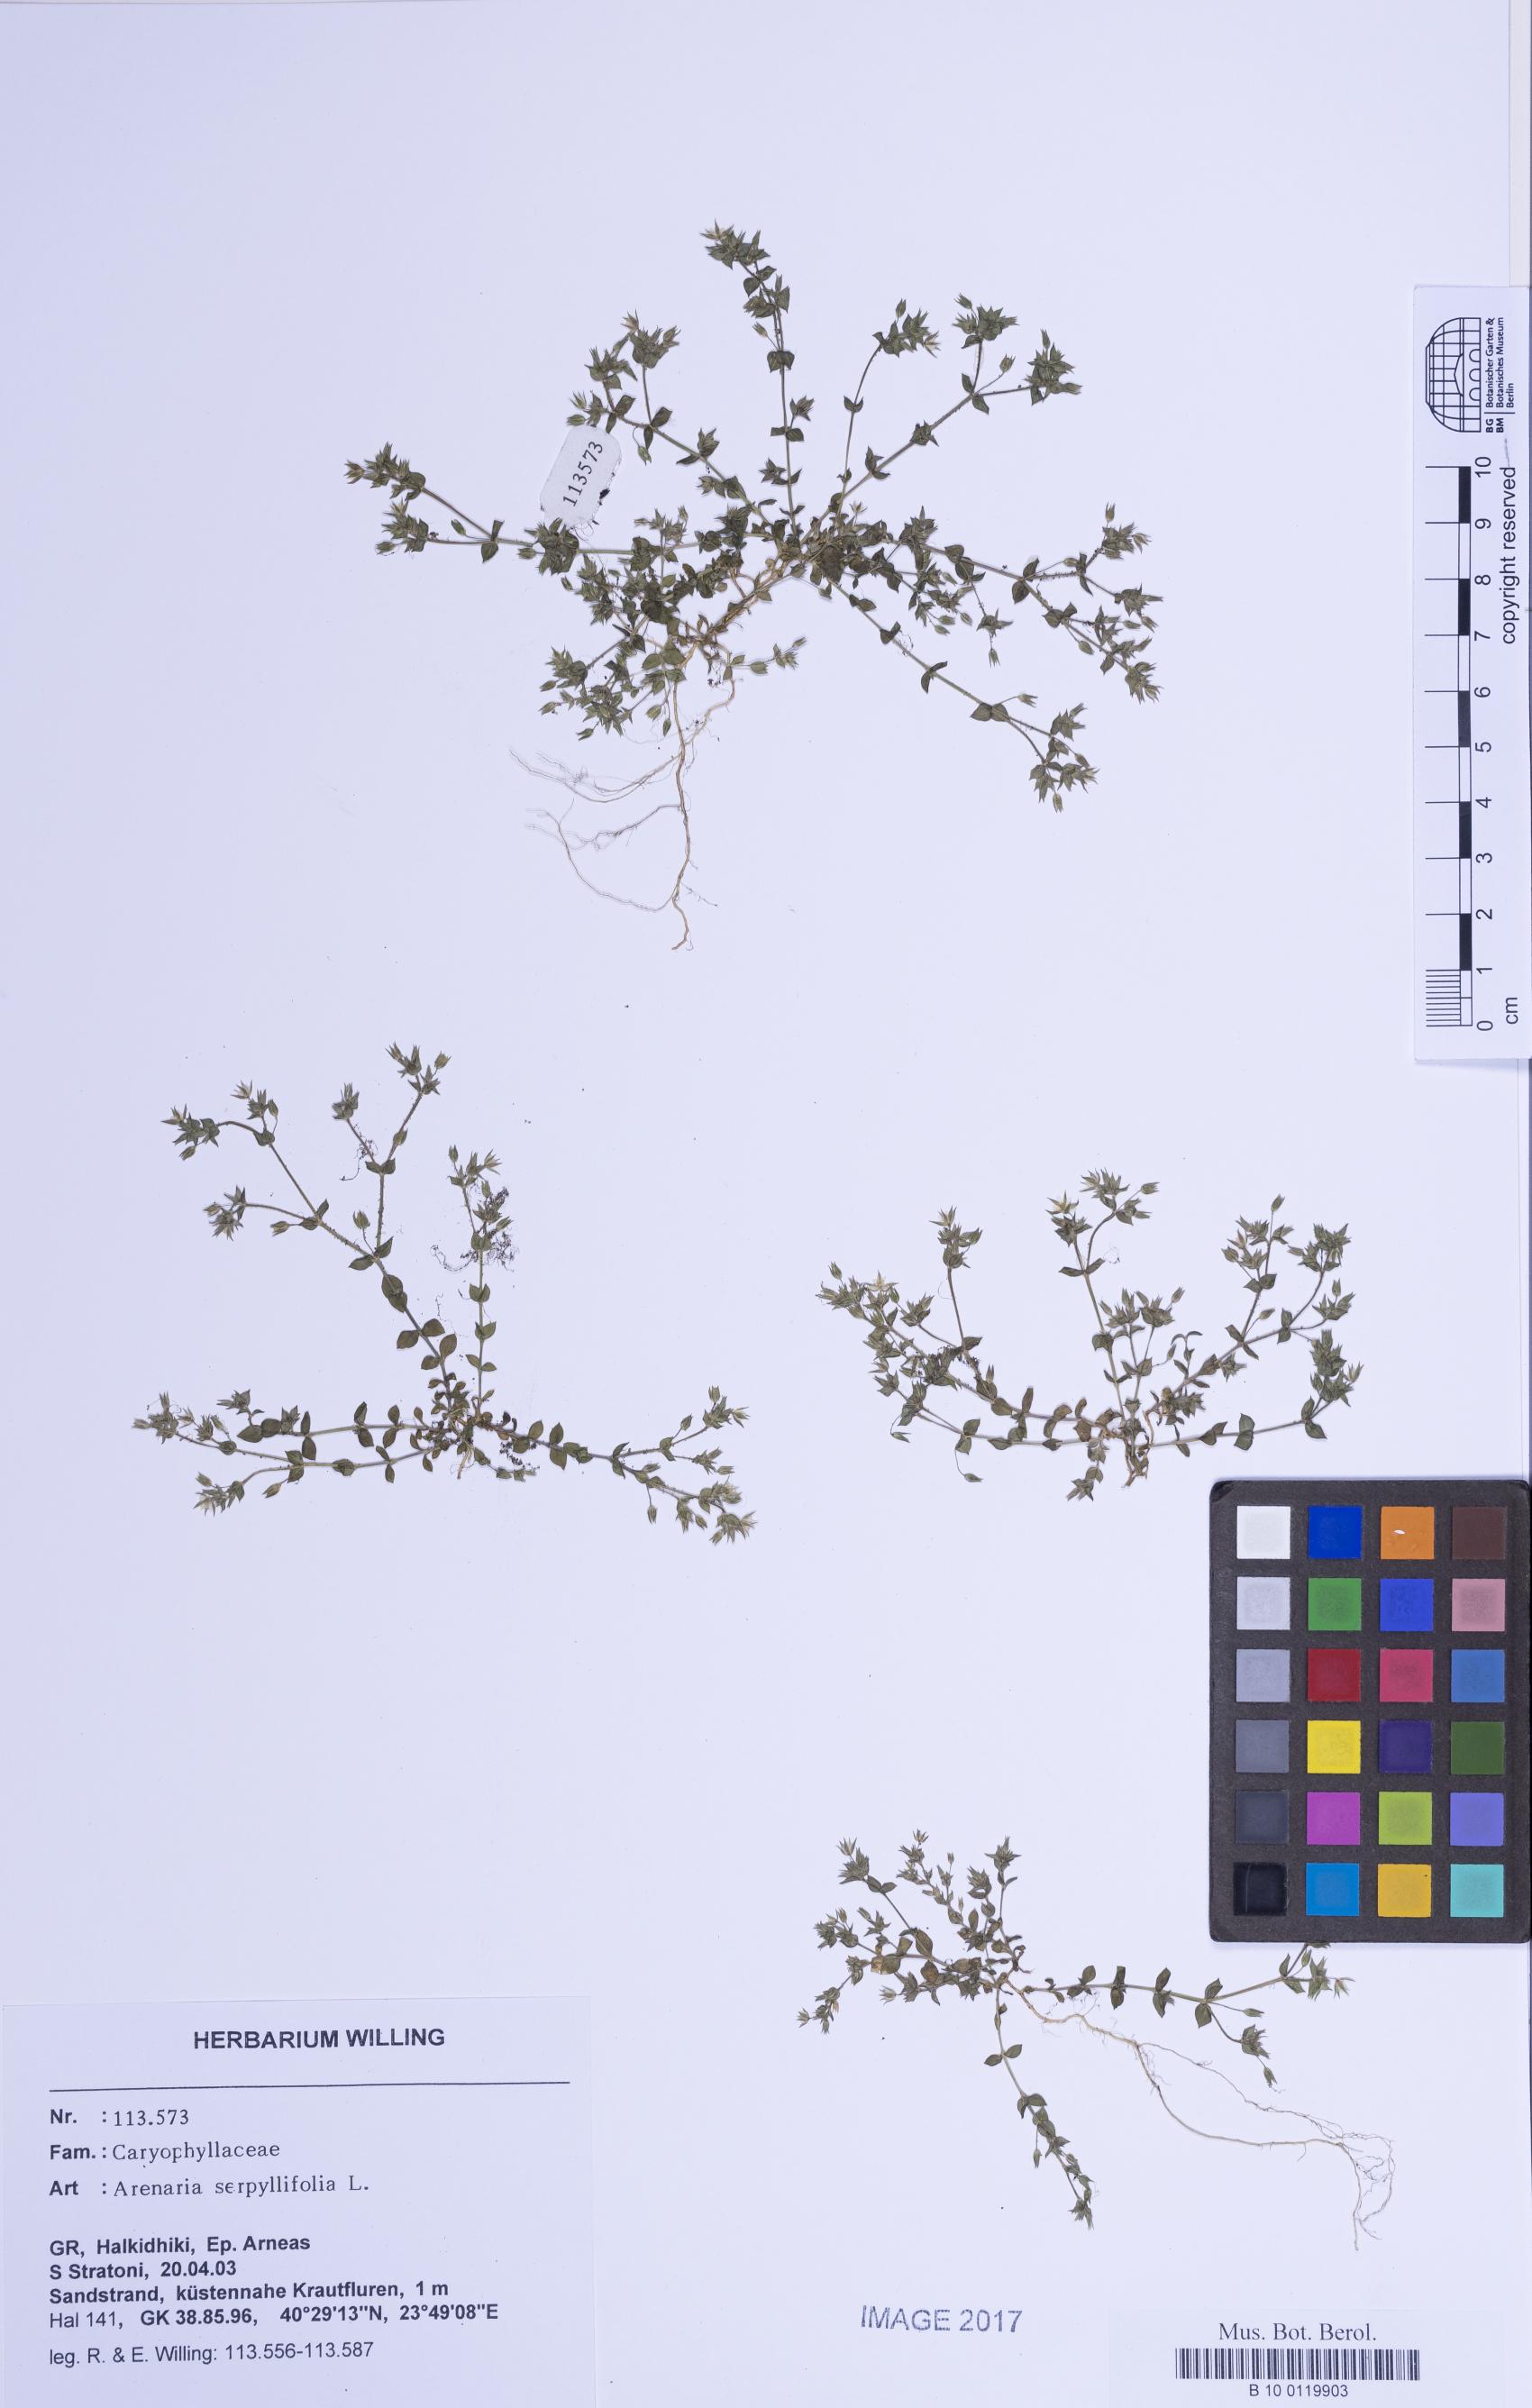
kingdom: Plantae
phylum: Tracheophyta
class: Magnoliopsida
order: Caryophyllales
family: Caryophyllaceae
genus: Arenaria
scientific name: Arenaria serpyllifolia
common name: Thyme-leaved sandwort
